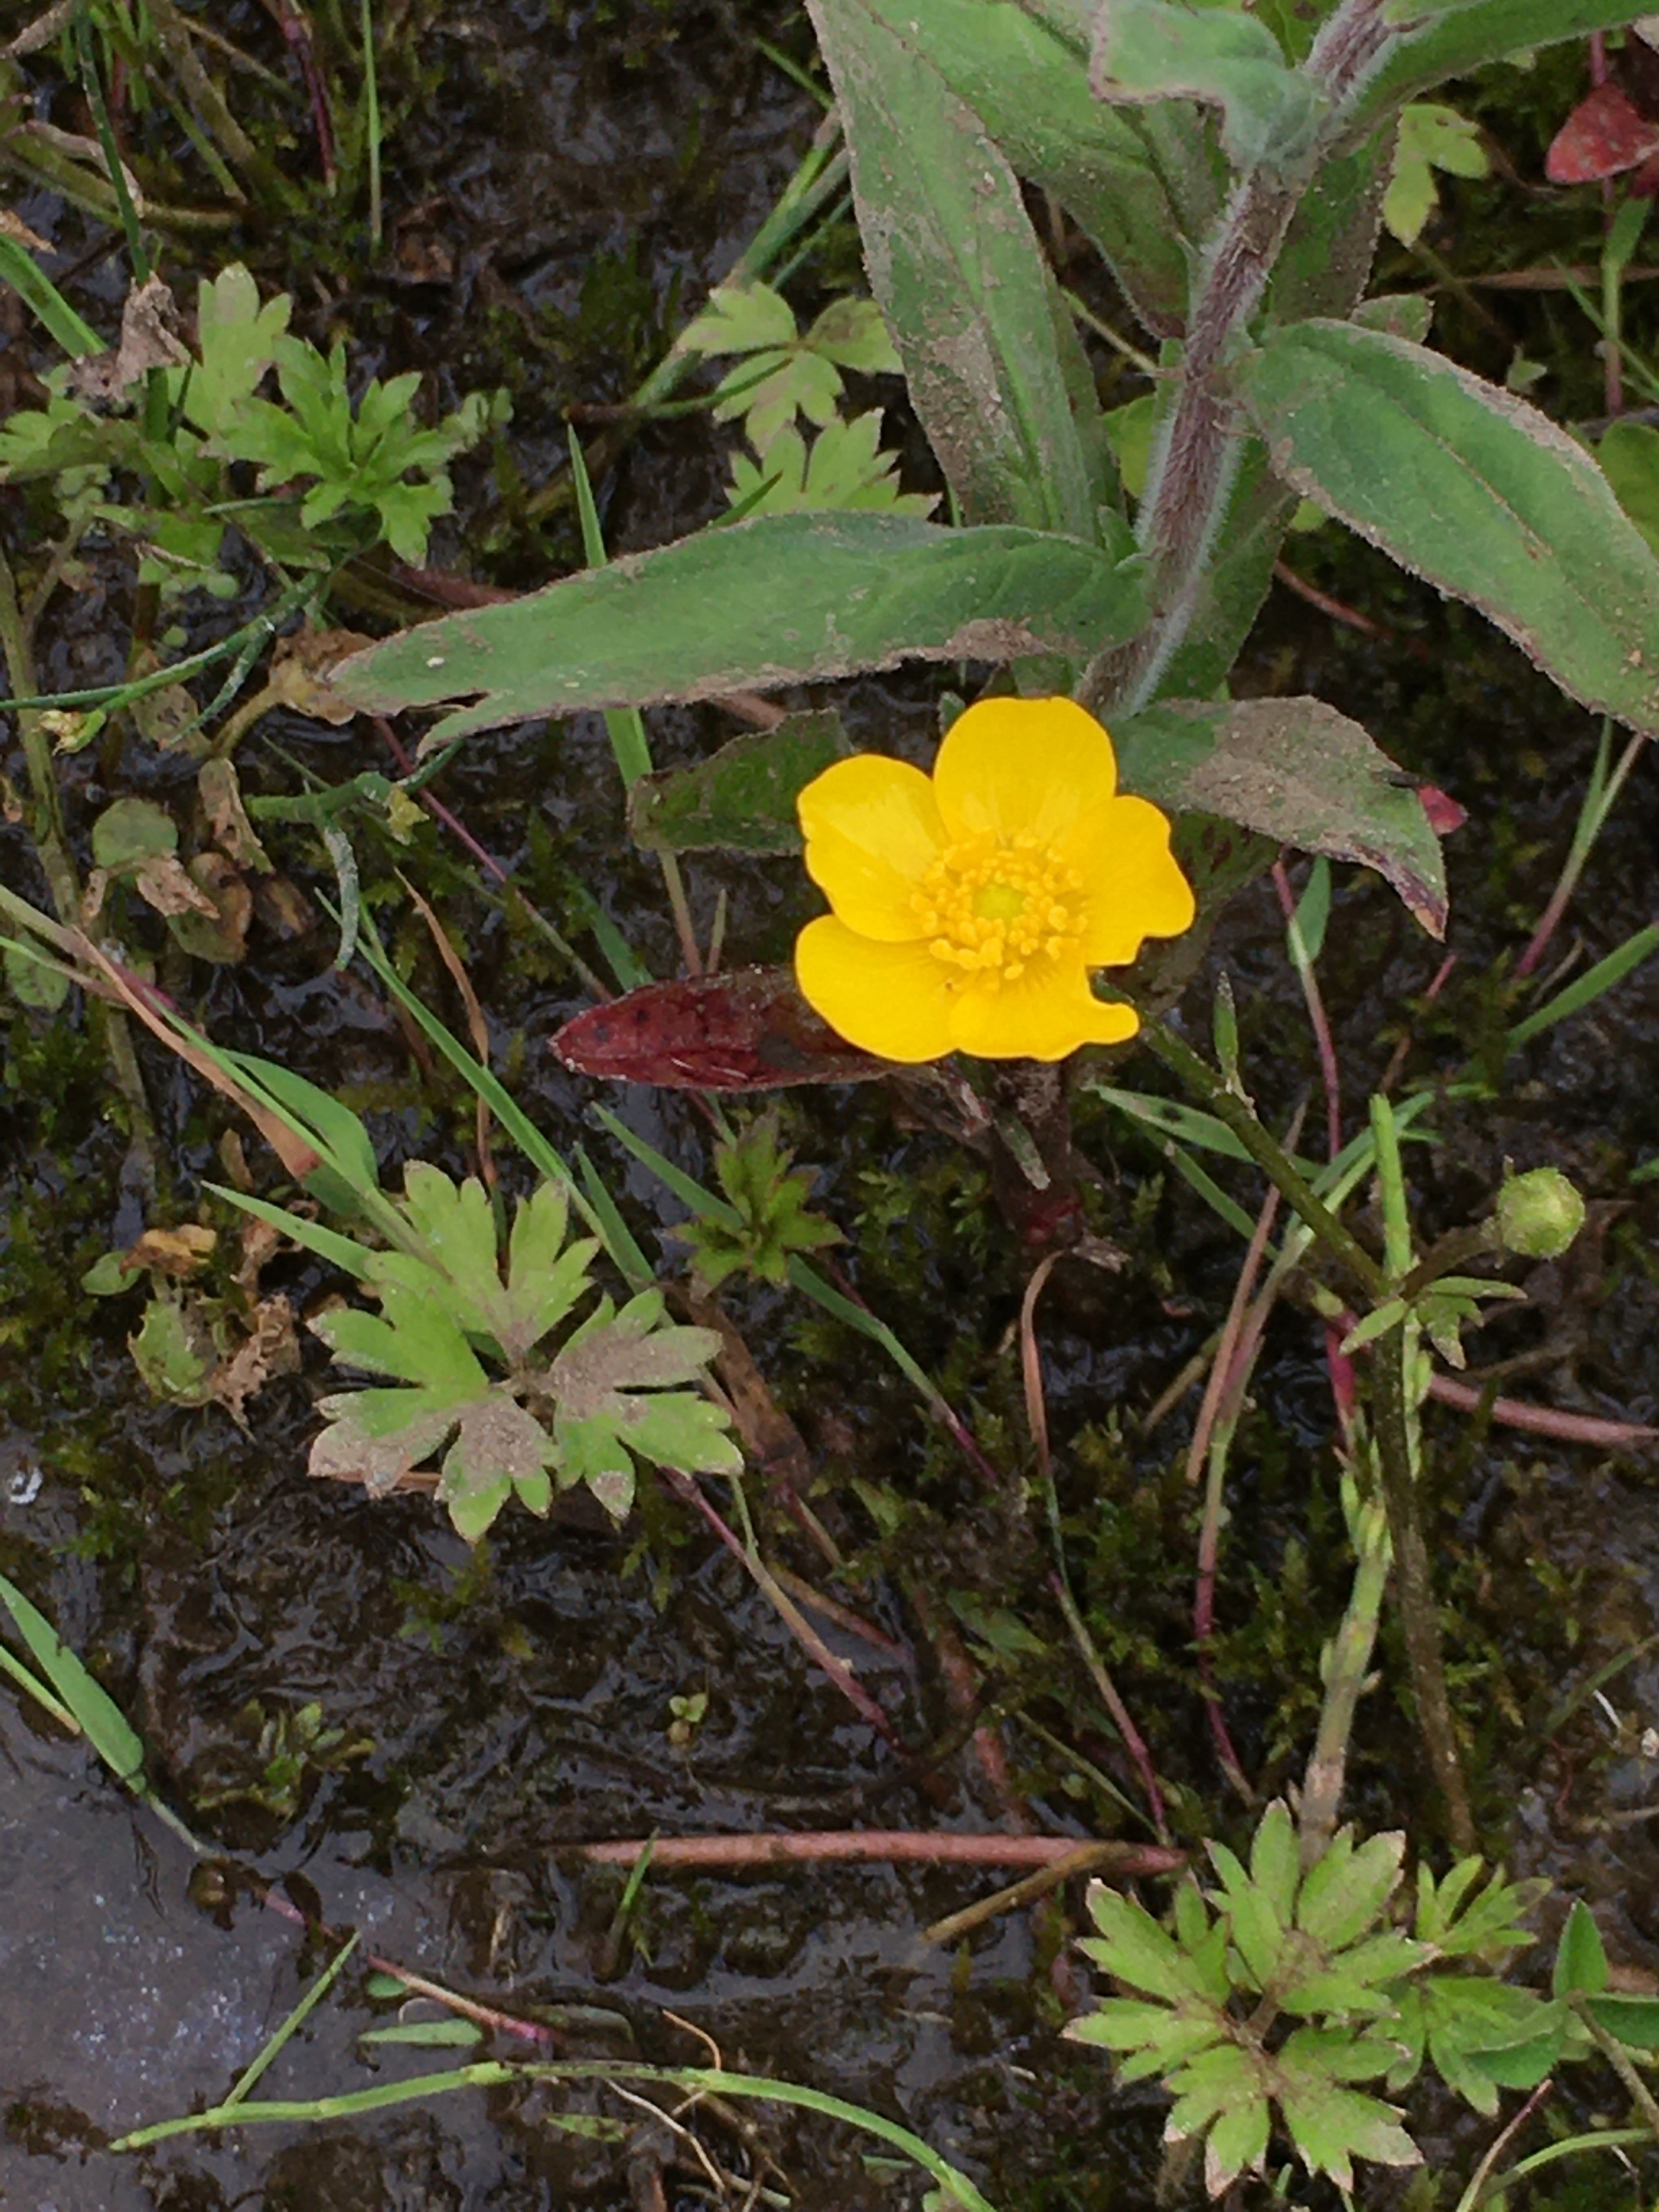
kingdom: Plantae
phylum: Tracheophyta
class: Magnoliopsida
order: Ranunculales
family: Ranunculaceae
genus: Ranunculus
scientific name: Ranunculus repens
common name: Lav ranunkel
